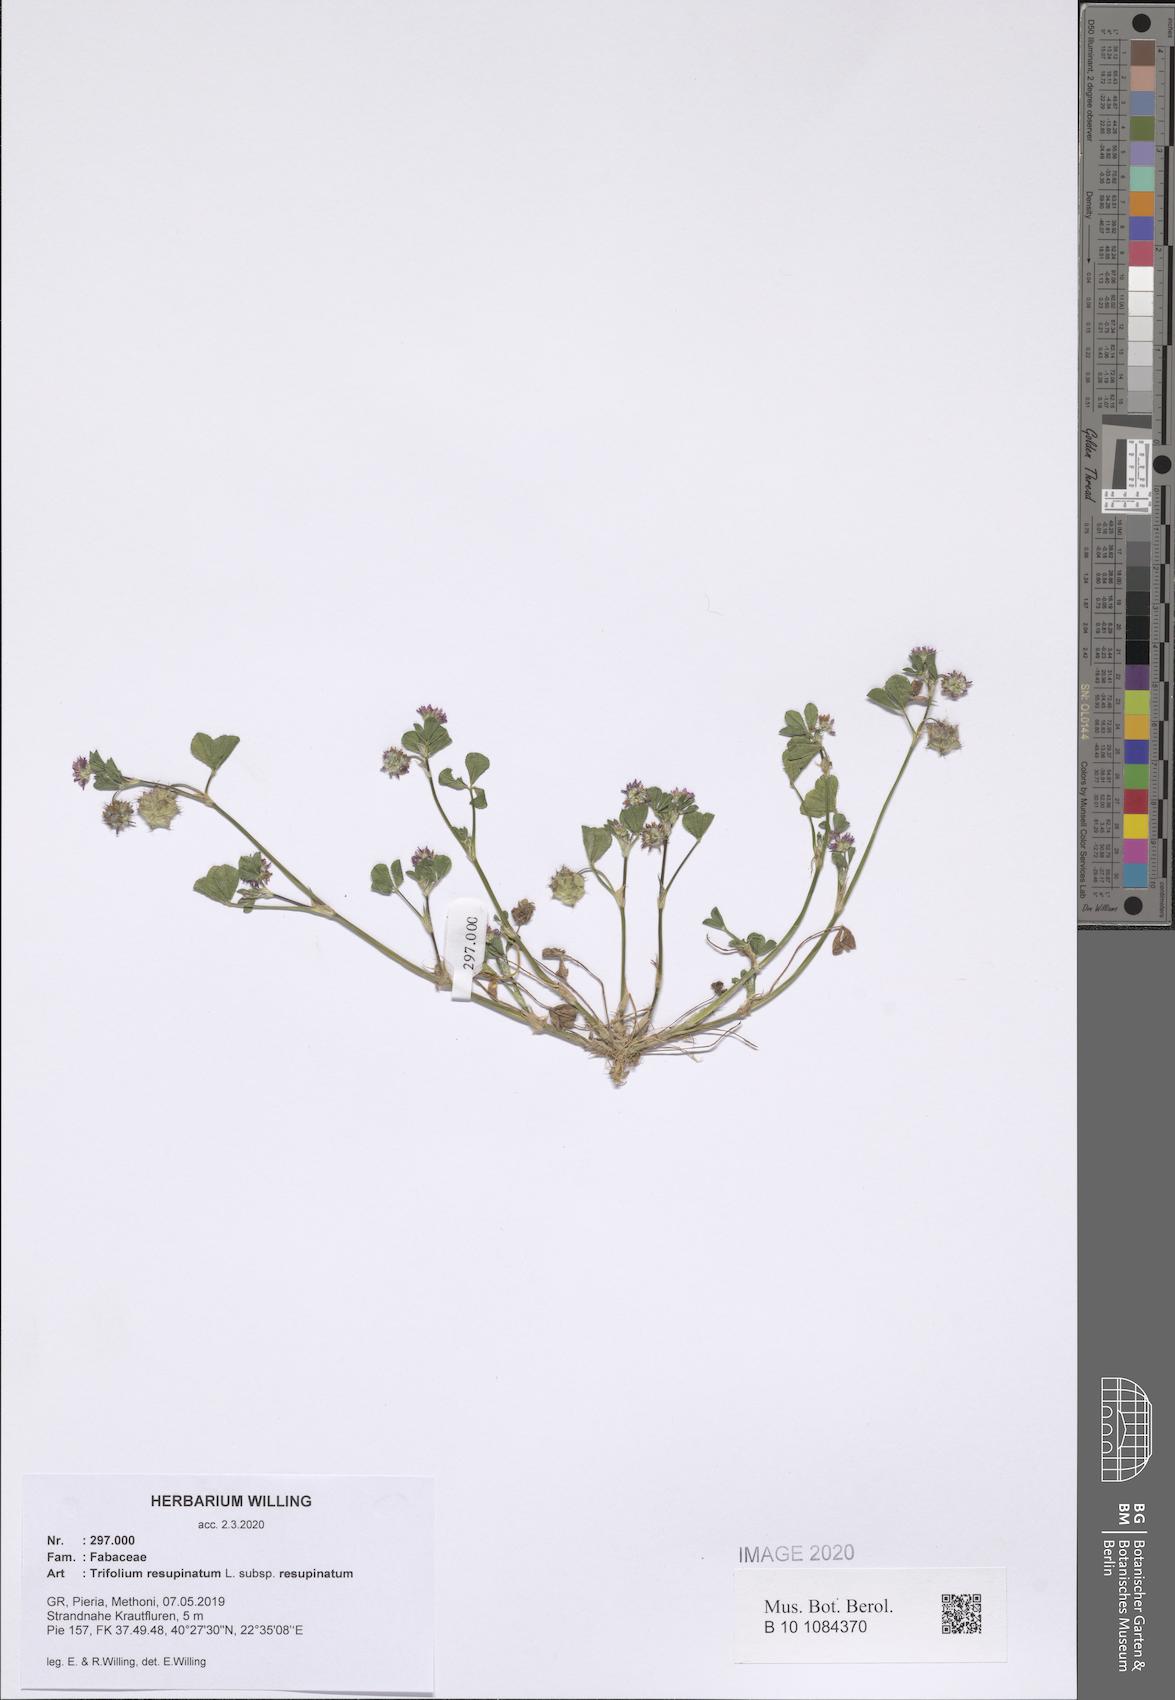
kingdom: Plantae
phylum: Tracheophyta
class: Magnoliopsida
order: Fabales
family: Fabaceae
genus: Trifolium
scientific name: Trifolium resupinatum
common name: Reversed clover
